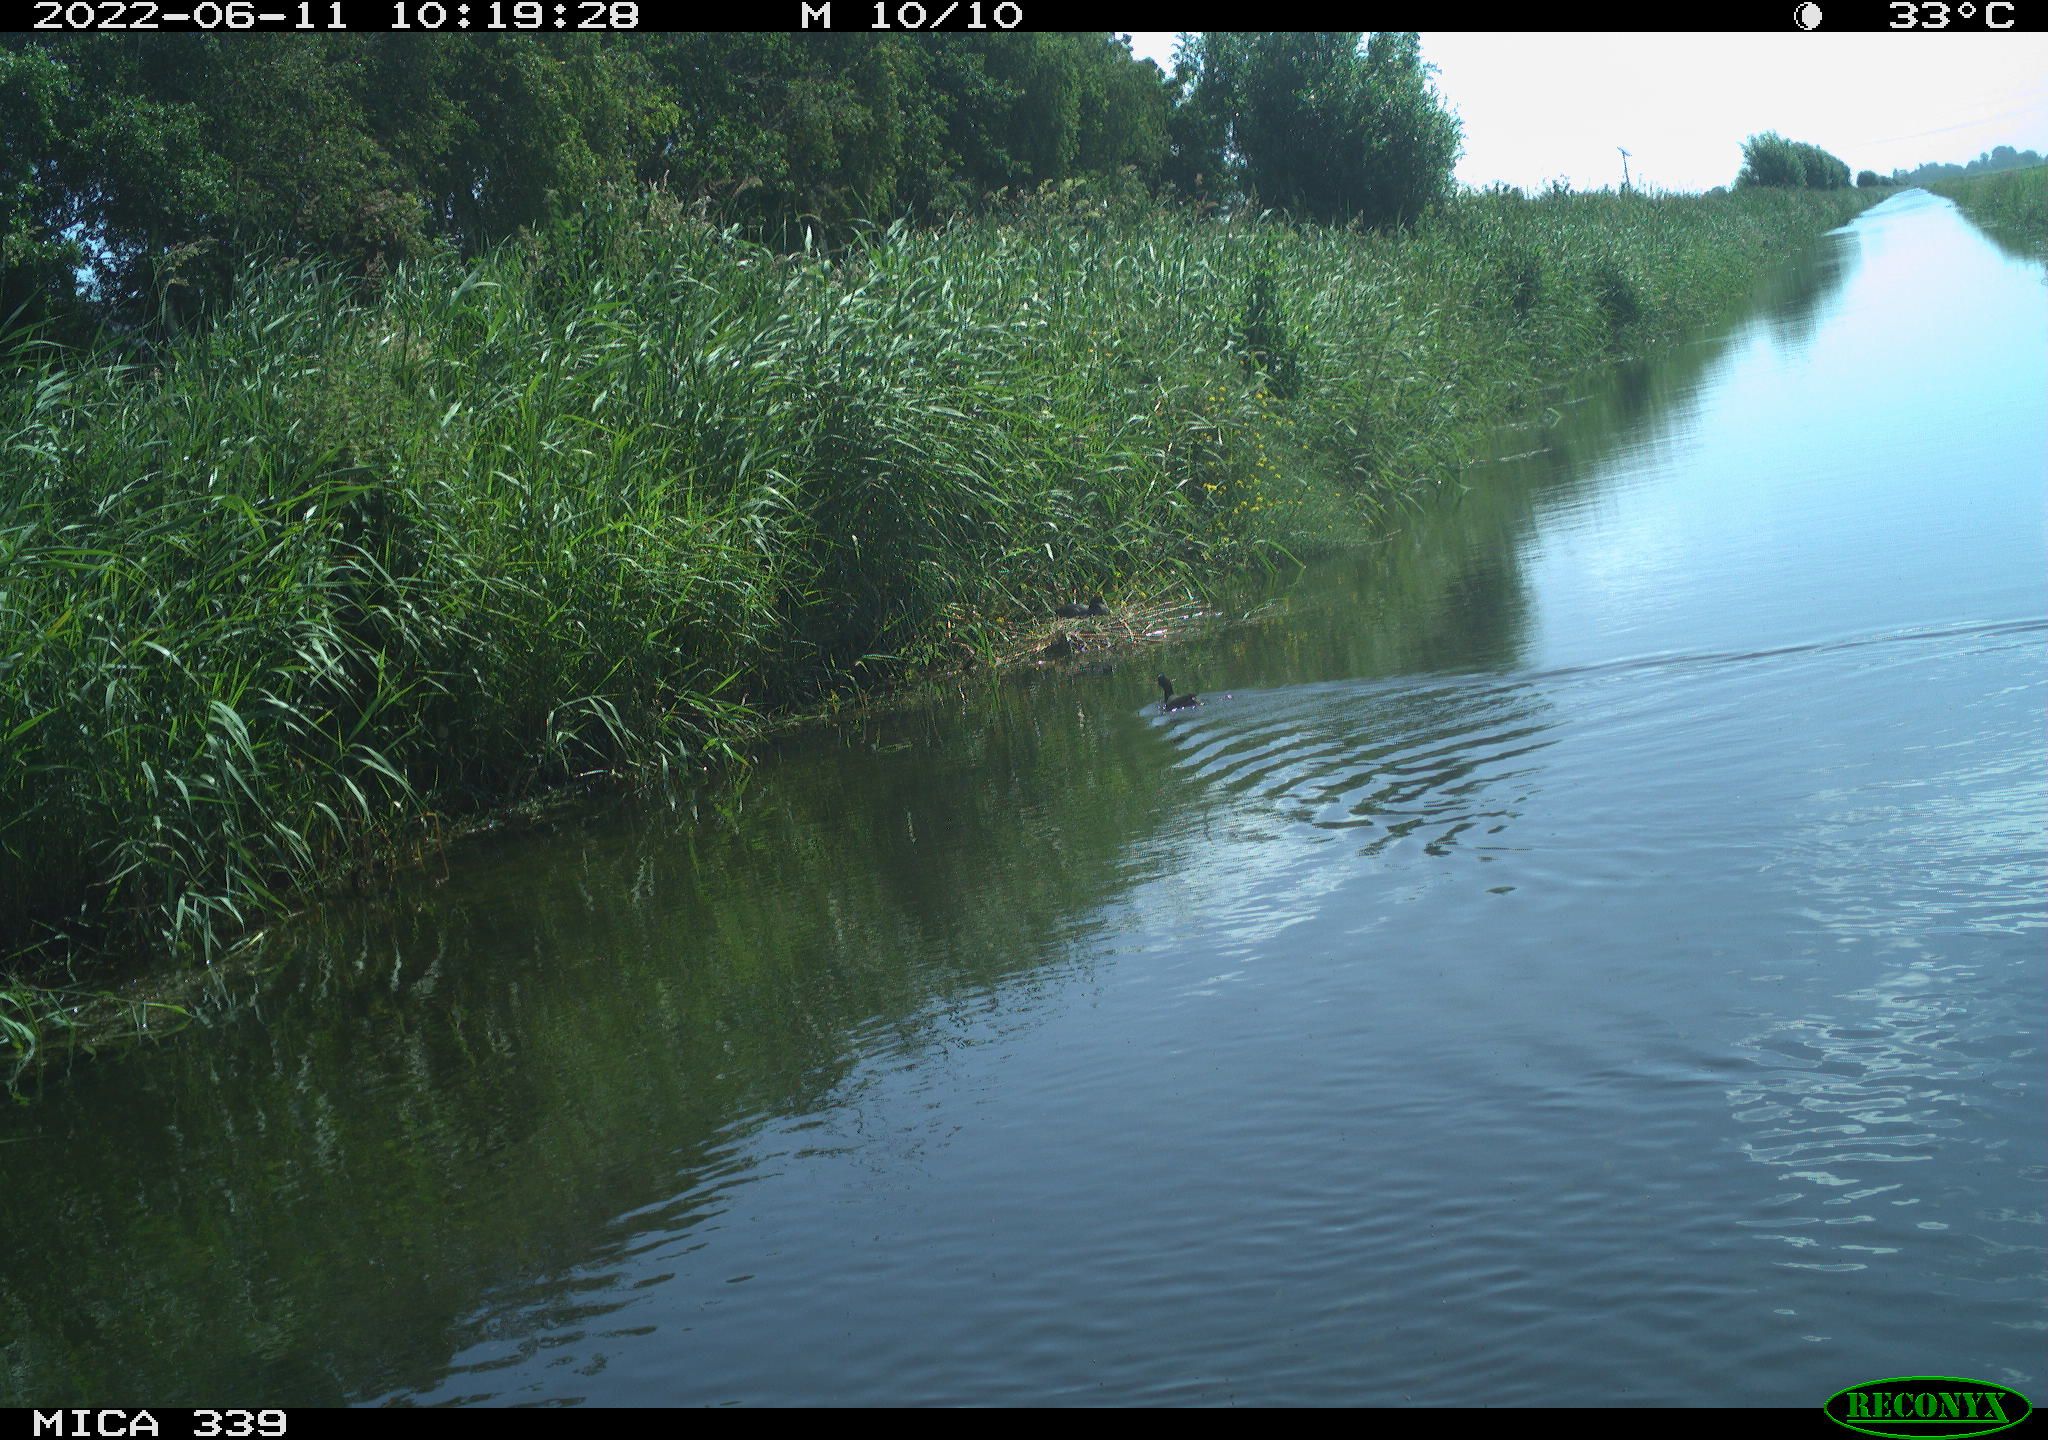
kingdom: Animalia
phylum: Chordata
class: Aves
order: Gruiformes
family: Rallidae
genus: Fulica
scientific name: Fulica atra
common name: Eurasian coot
